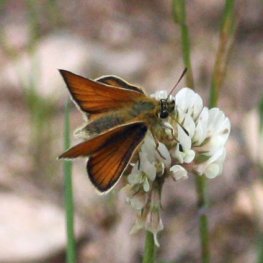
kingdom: Animalia
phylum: Arthropoda
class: Insecta
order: Lepidoptera
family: Hesperiidae
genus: Thymelicus
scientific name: Thymelicus lineola
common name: European Skipper
